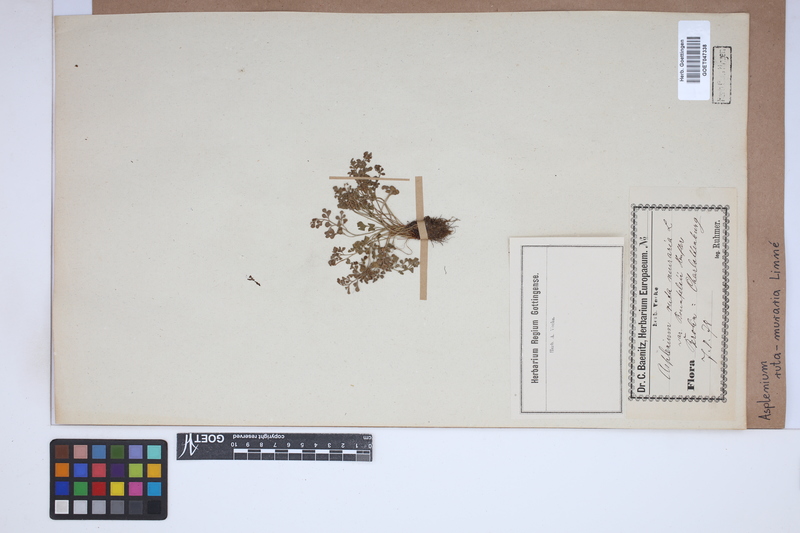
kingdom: Plantae
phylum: Tracheophyta
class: Polypodiopsida
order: Polypodiales
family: Aspleniaceae
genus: Asplenium
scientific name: Asplenium ruta-muraria
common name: Wall-rue
